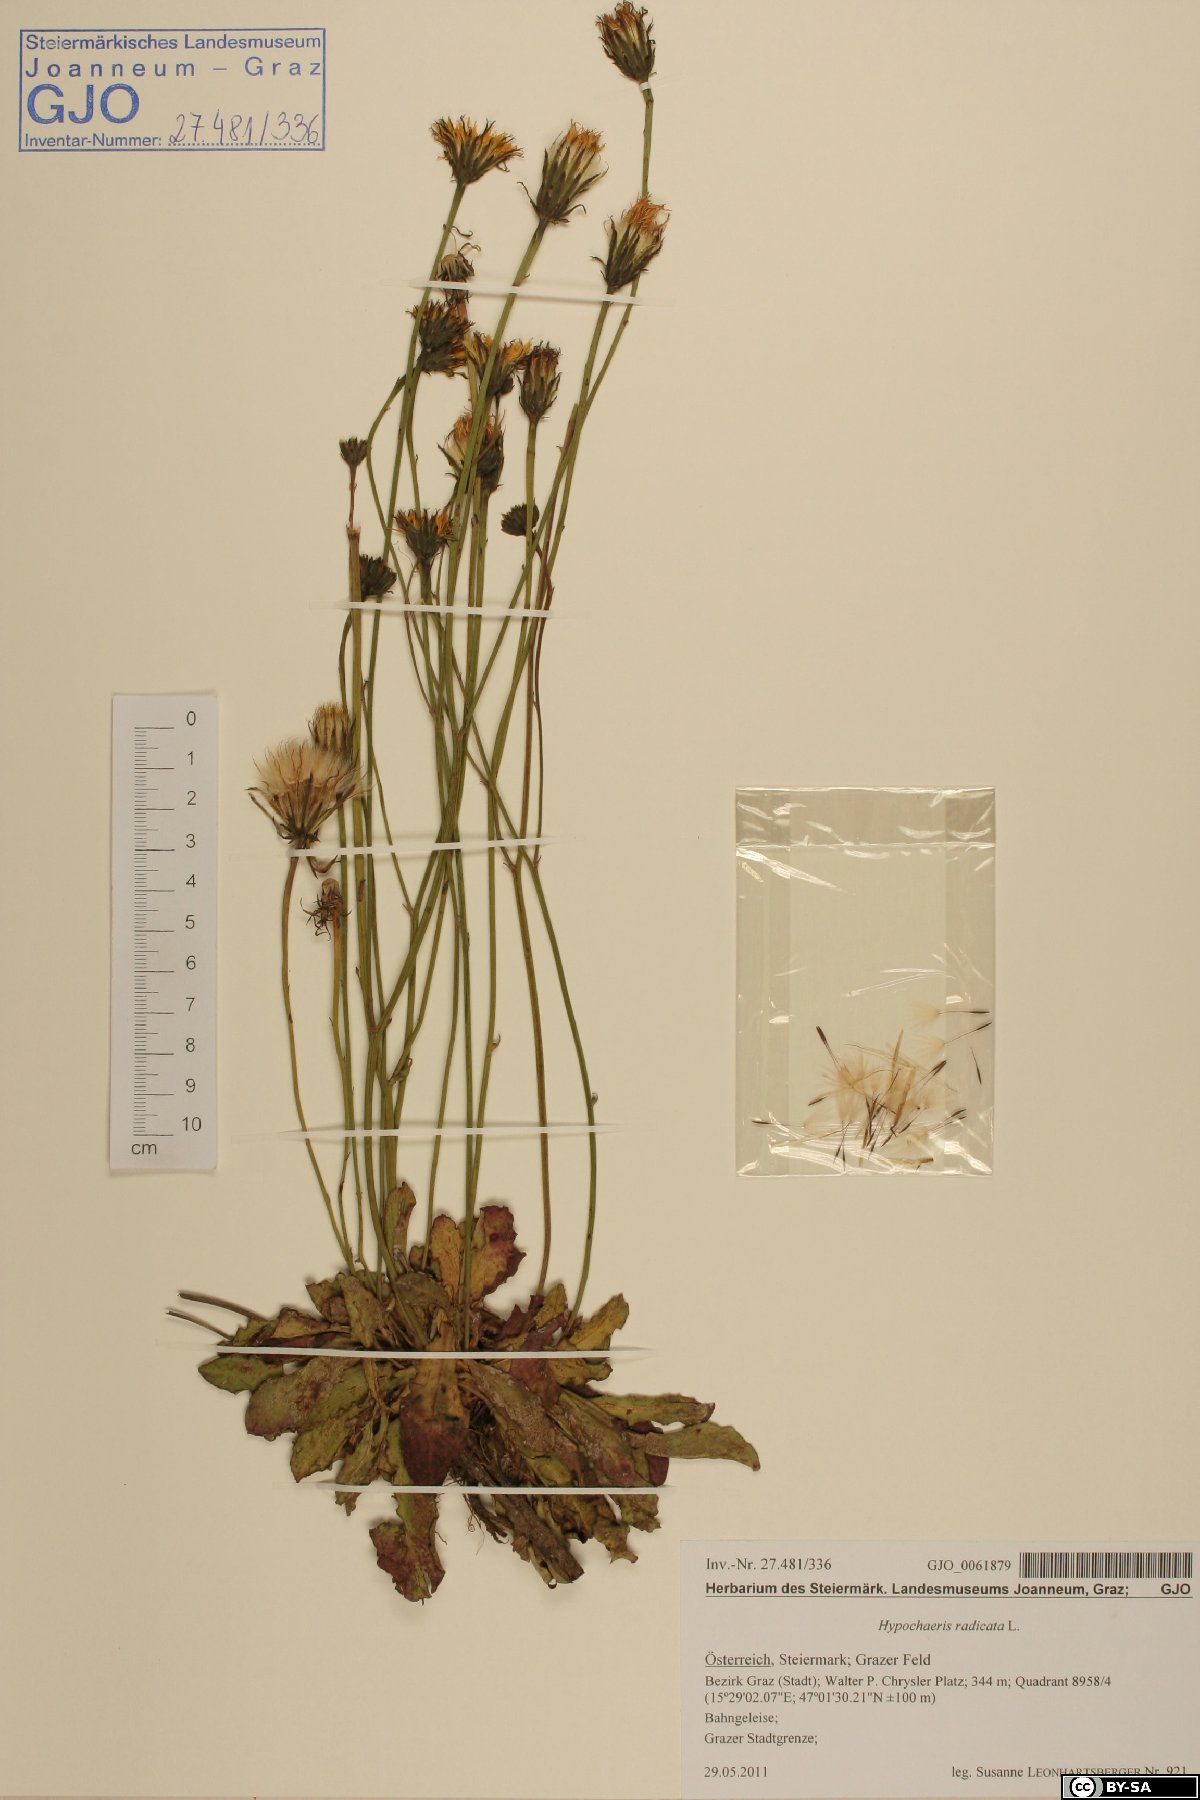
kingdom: Plantae
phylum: Tracheophyta
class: Magnoliopsida
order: Asterales
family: Asteraceae
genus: Hypochaeris
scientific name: Hypochaeris radicata
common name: Flatweed
